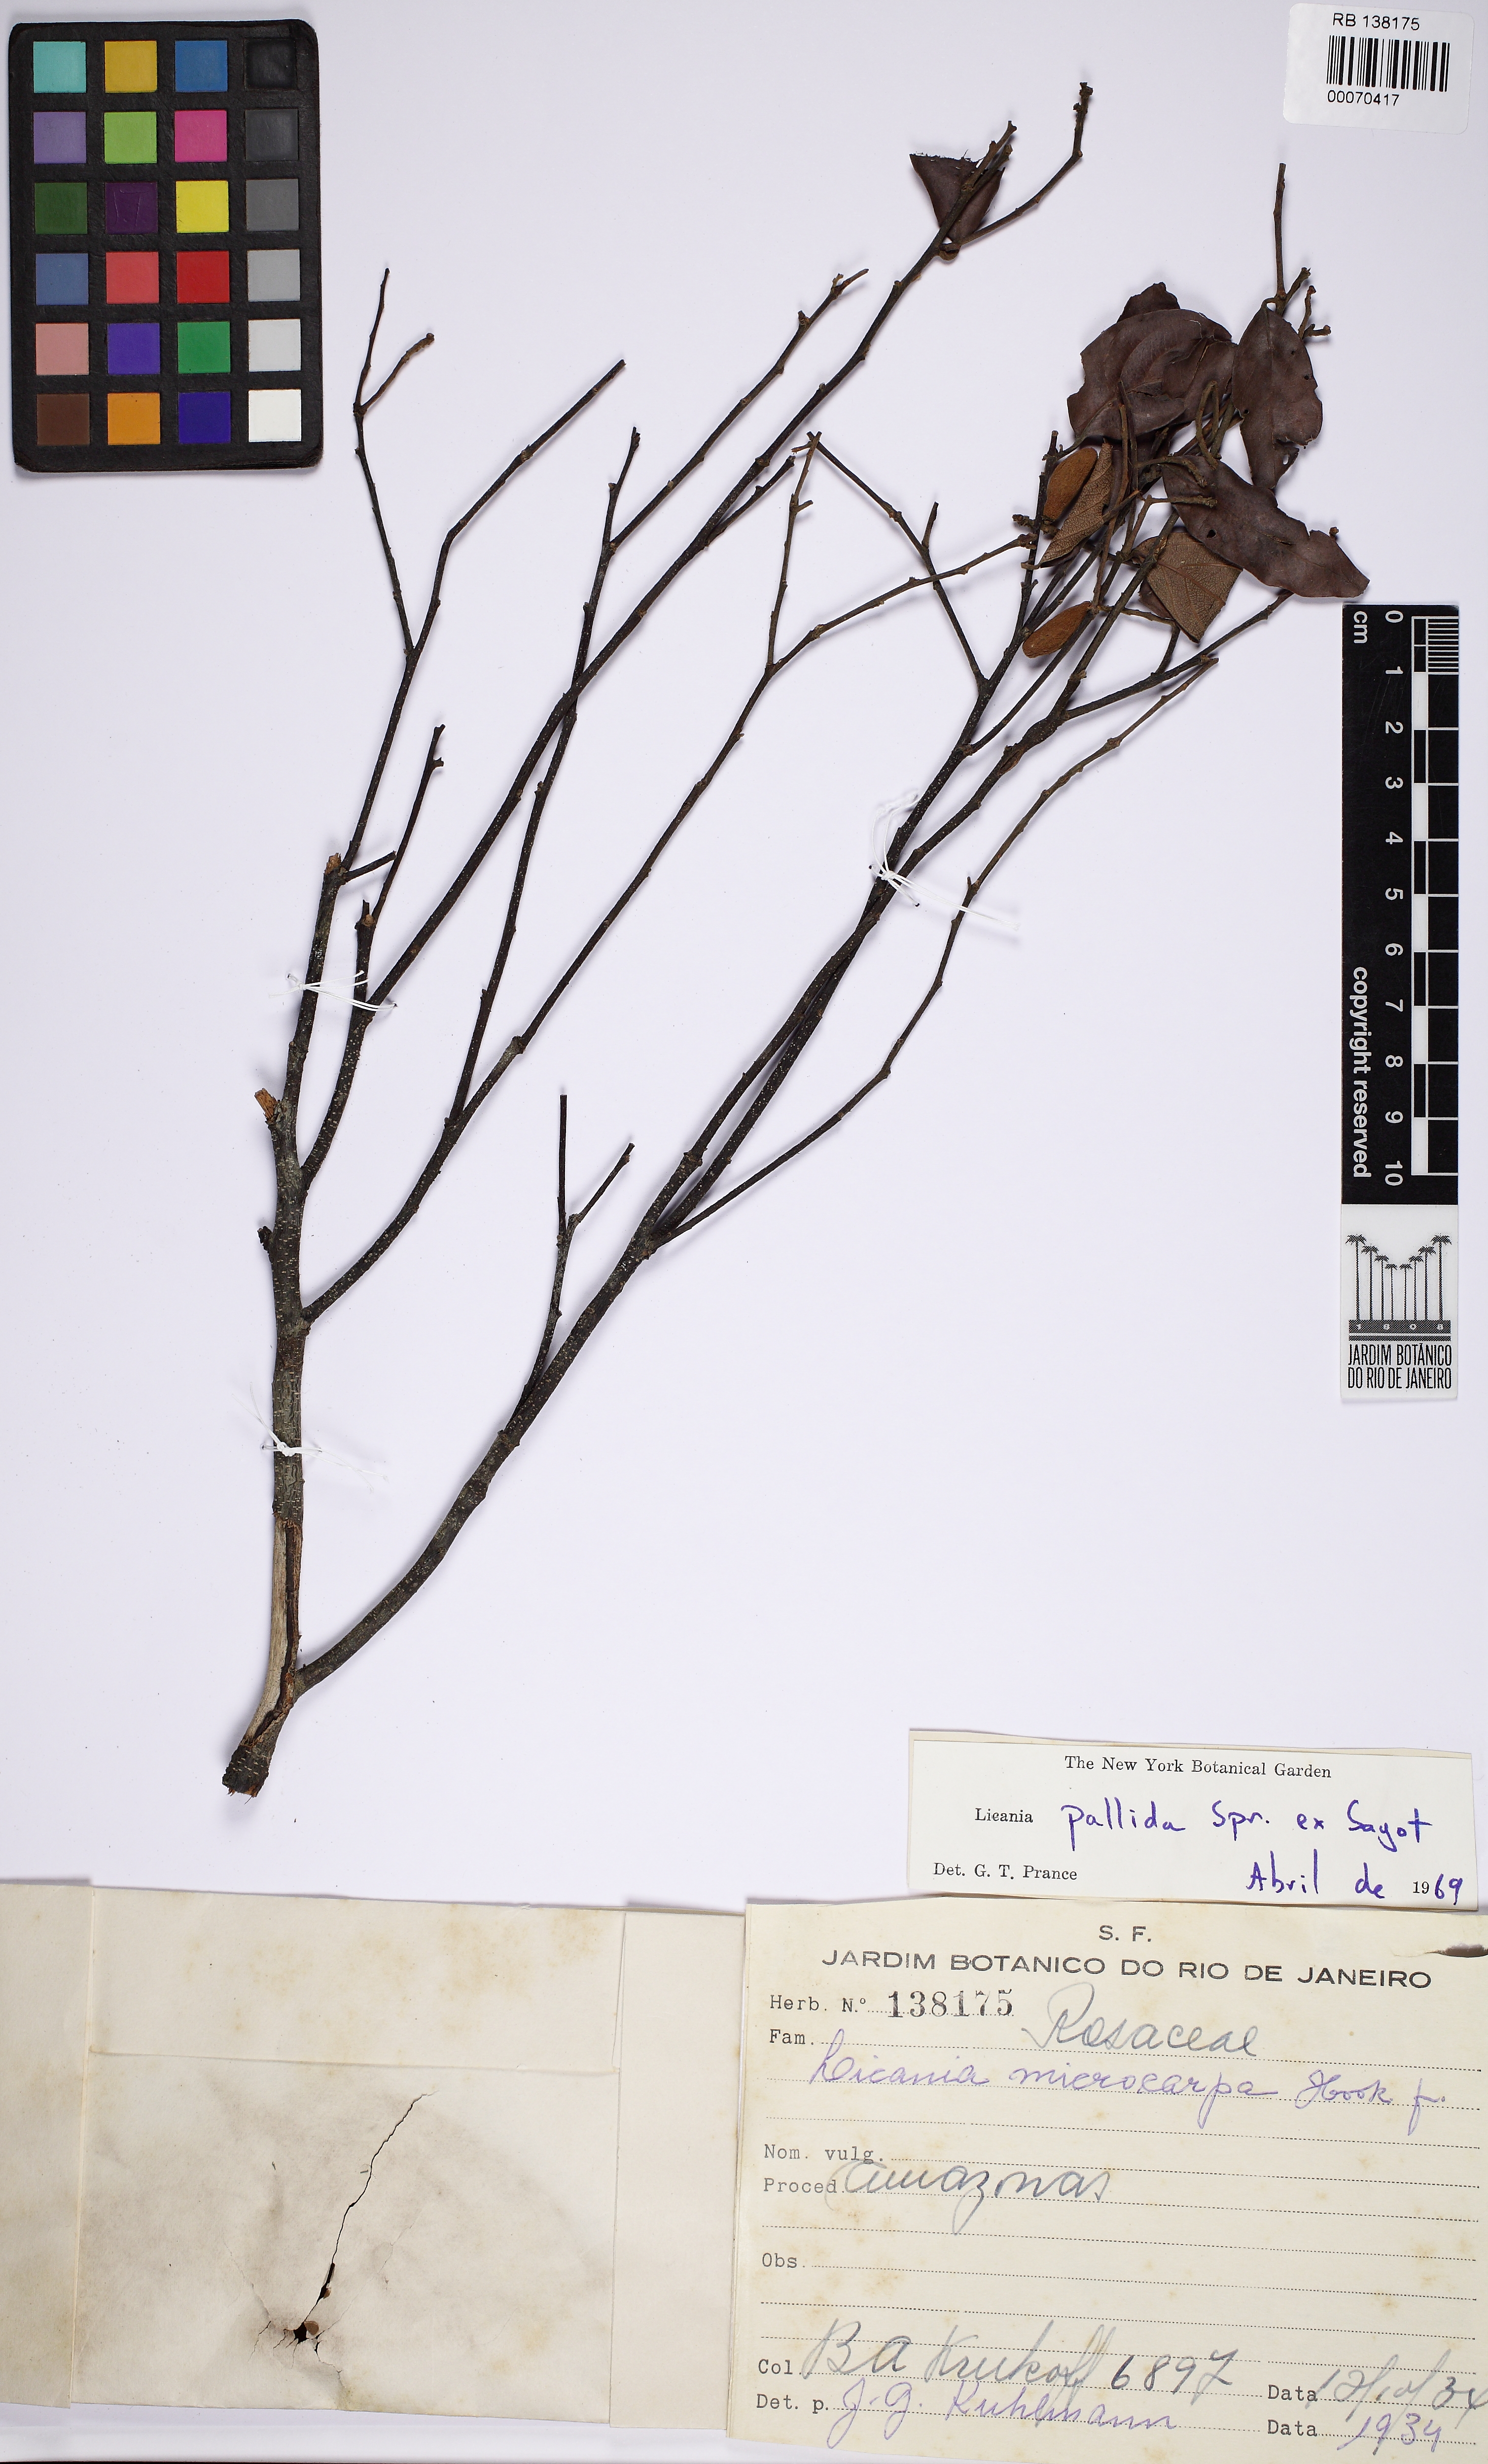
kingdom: Plantae
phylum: Tracheophyta
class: Magnoliopsida
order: Malpighiales
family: Chrysobalanaceae
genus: Licania
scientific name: Licania pallida
